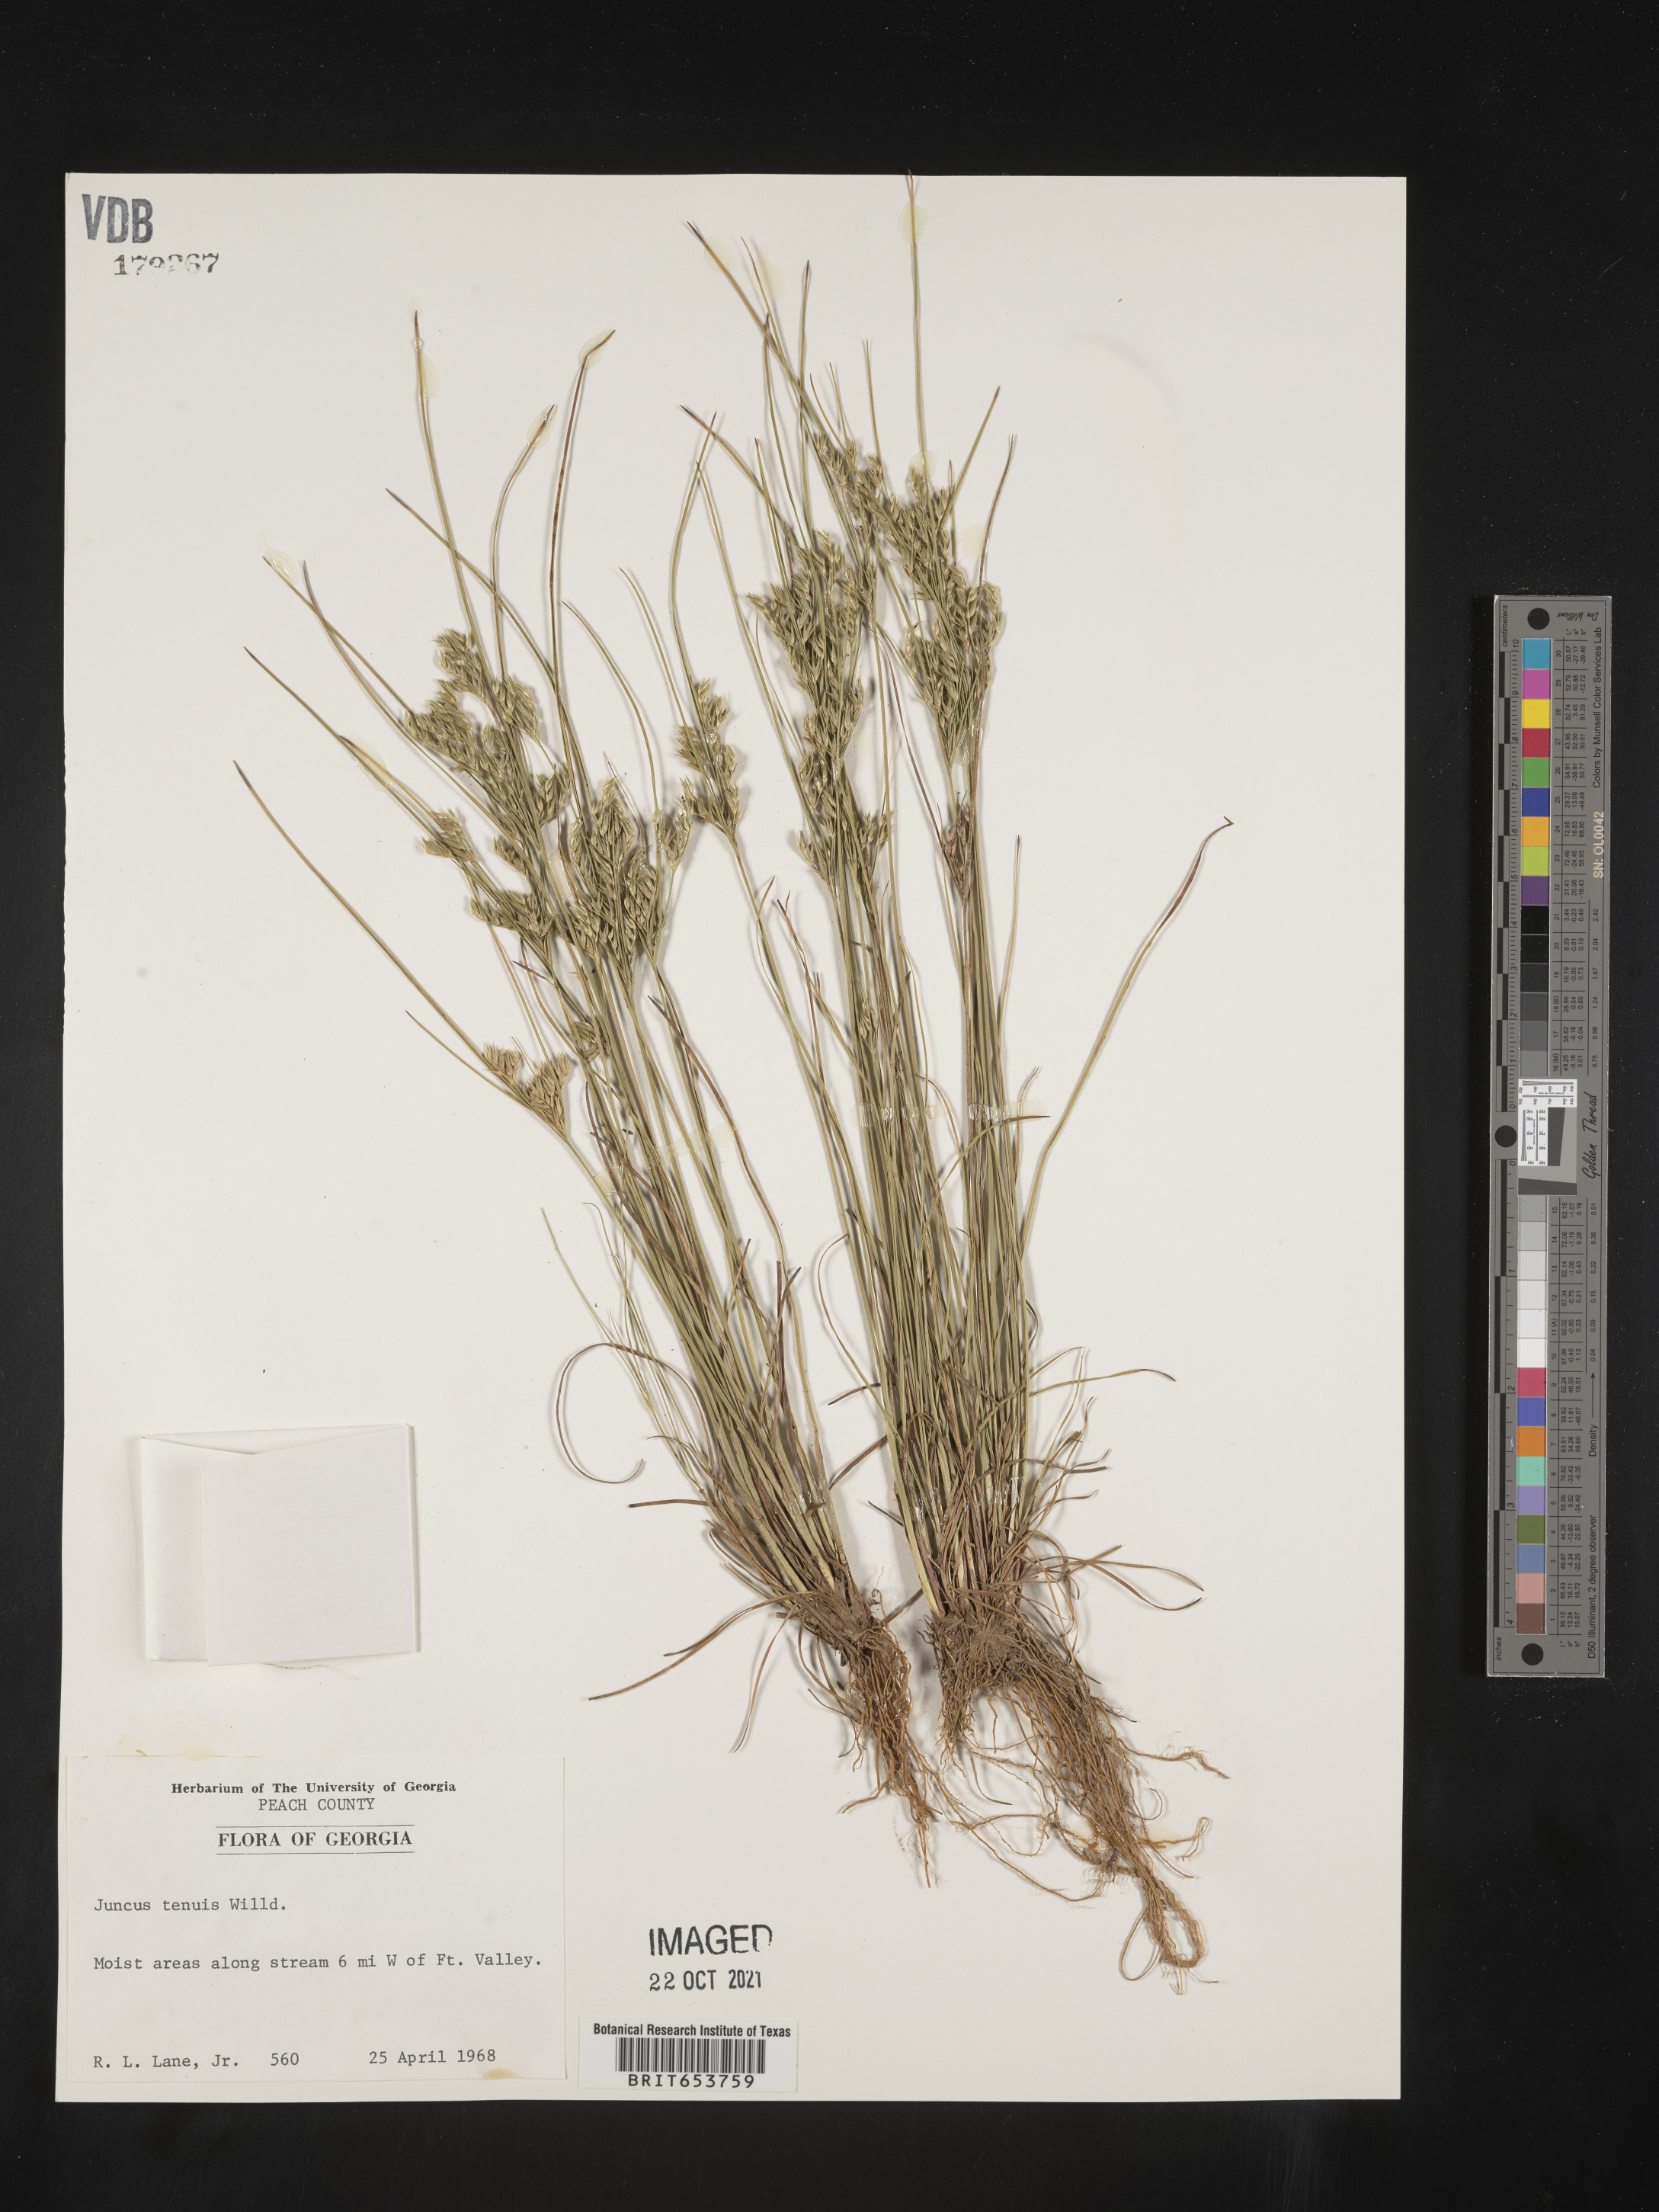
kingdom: Plantae
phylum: Tracheophyta
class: Liliopsida
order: Poales
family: Juncaceae
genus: Juncus
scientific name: Juncus tenuis
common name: Slender rush
